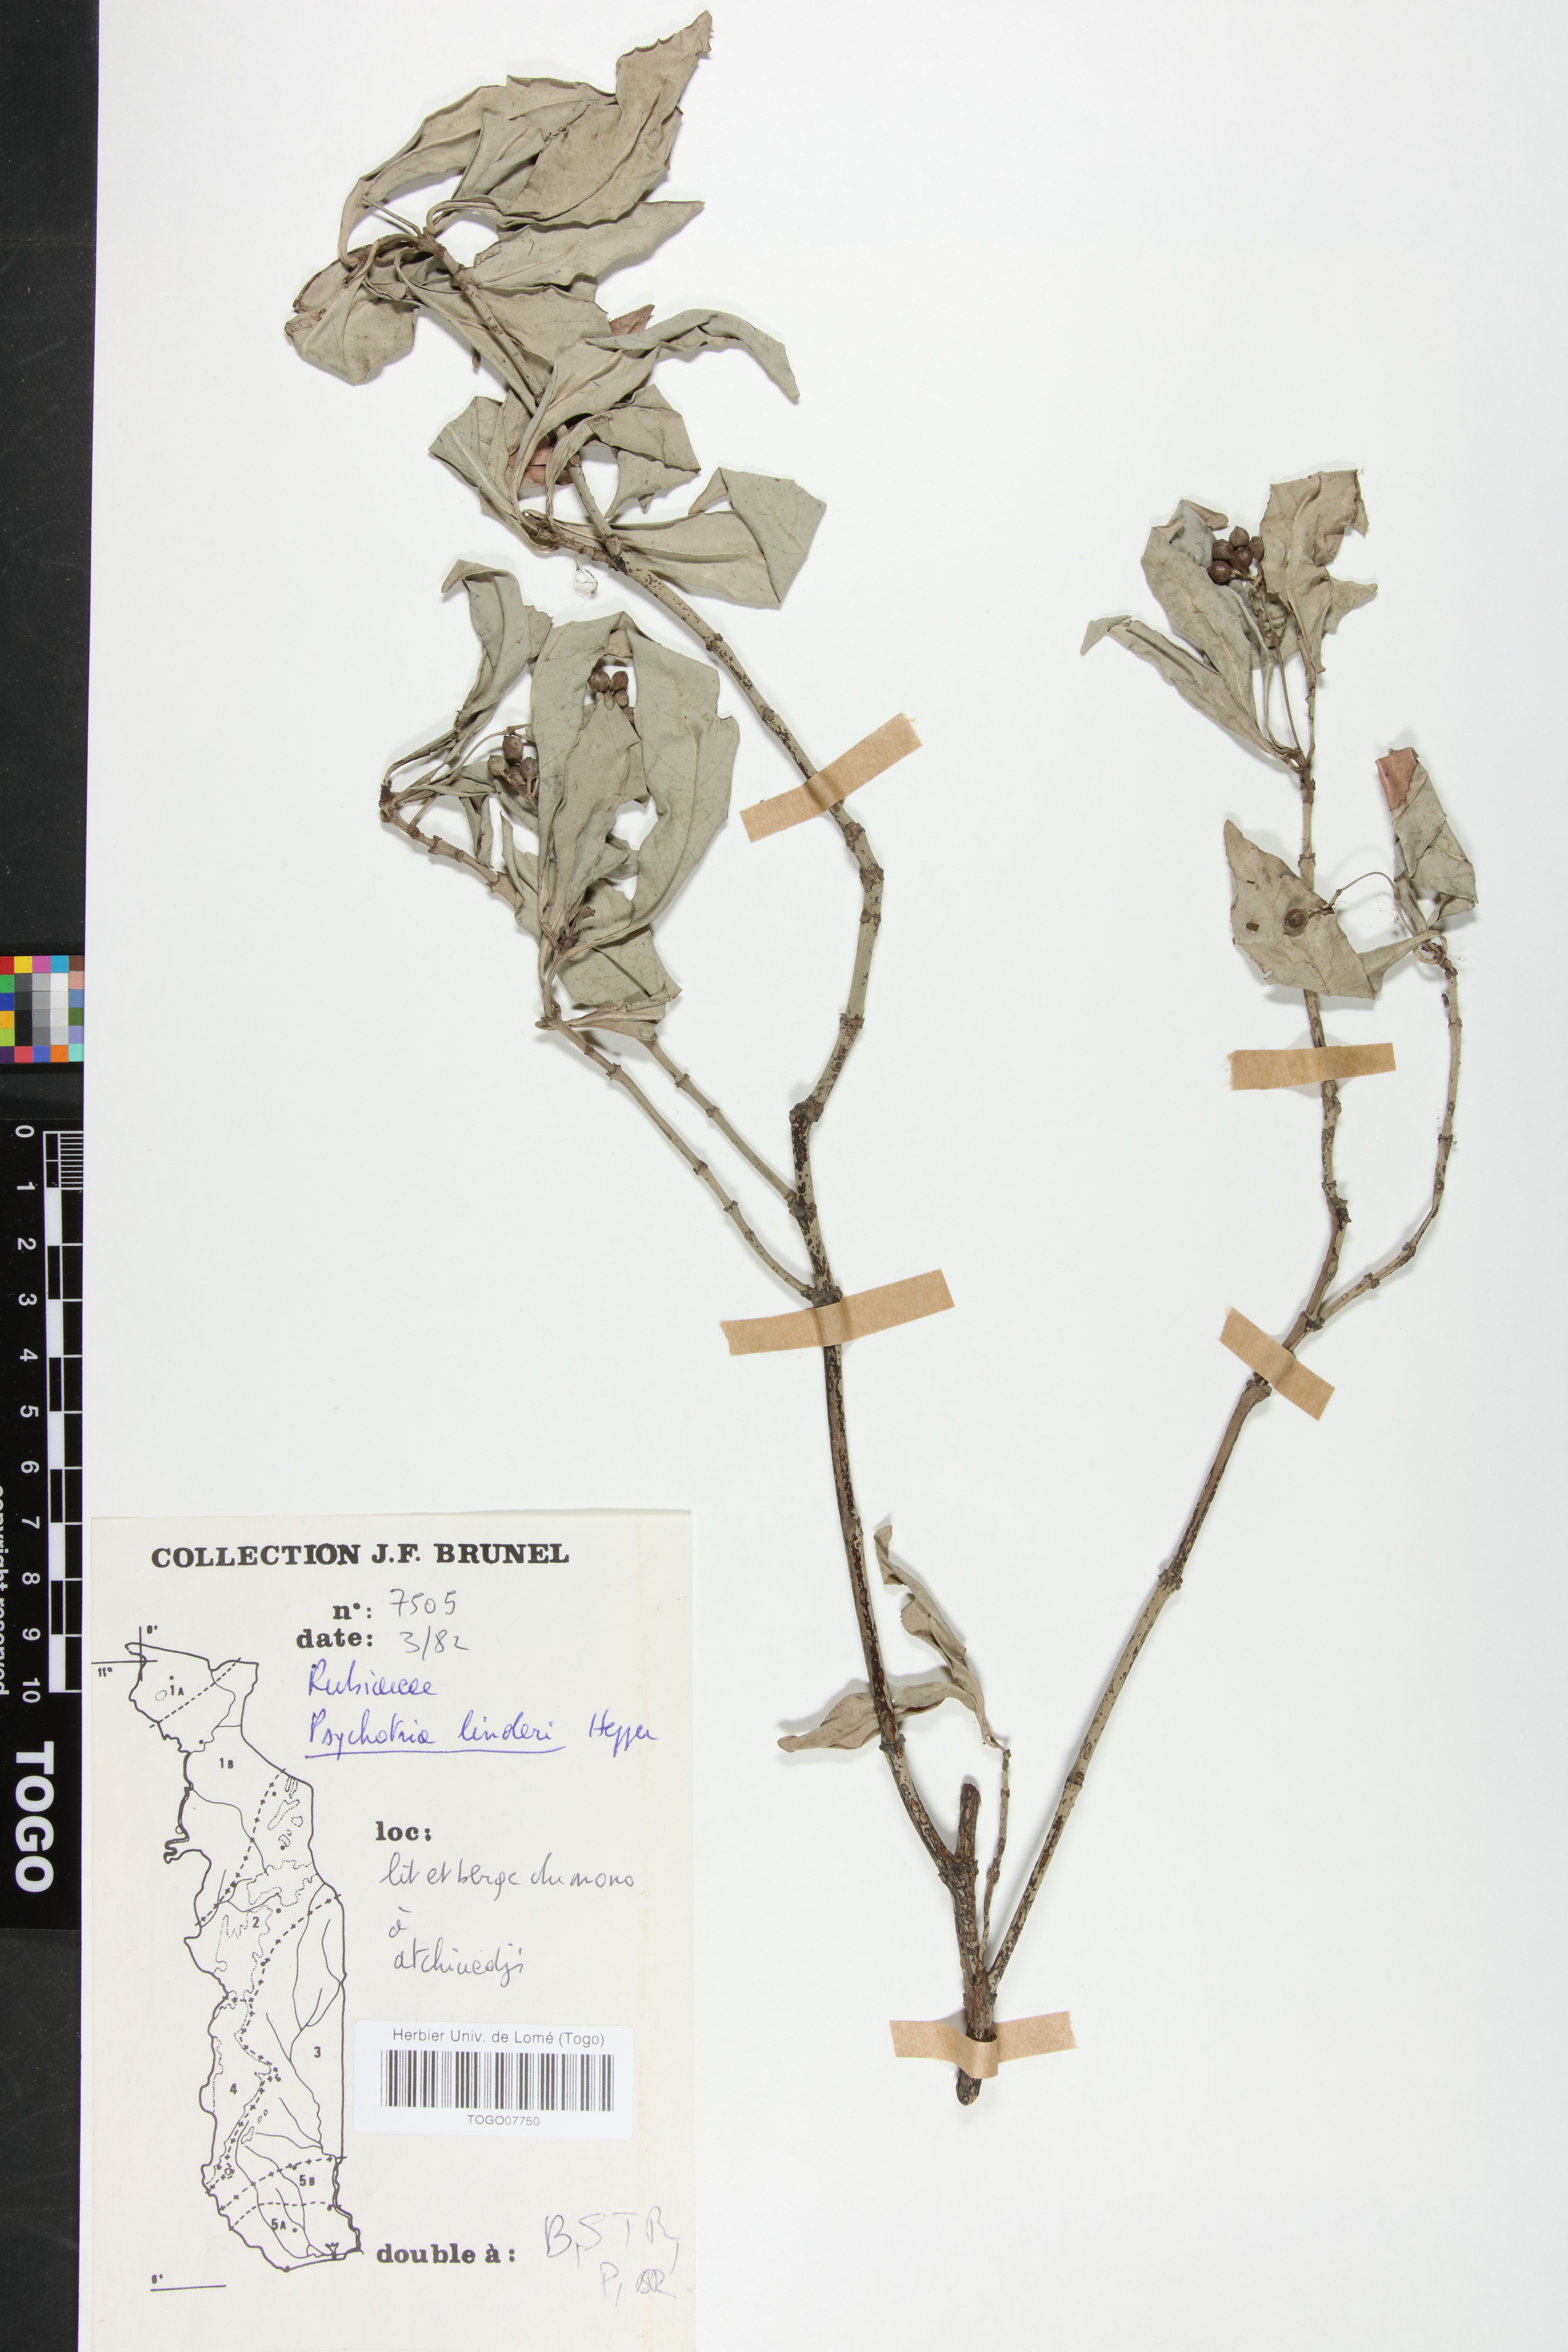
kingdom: Plantae
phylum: Tracheophyta
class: Magnoliopsida
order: Gentianales
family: Rubiaceae
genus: Psychotria
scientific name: Psychotria linderi
